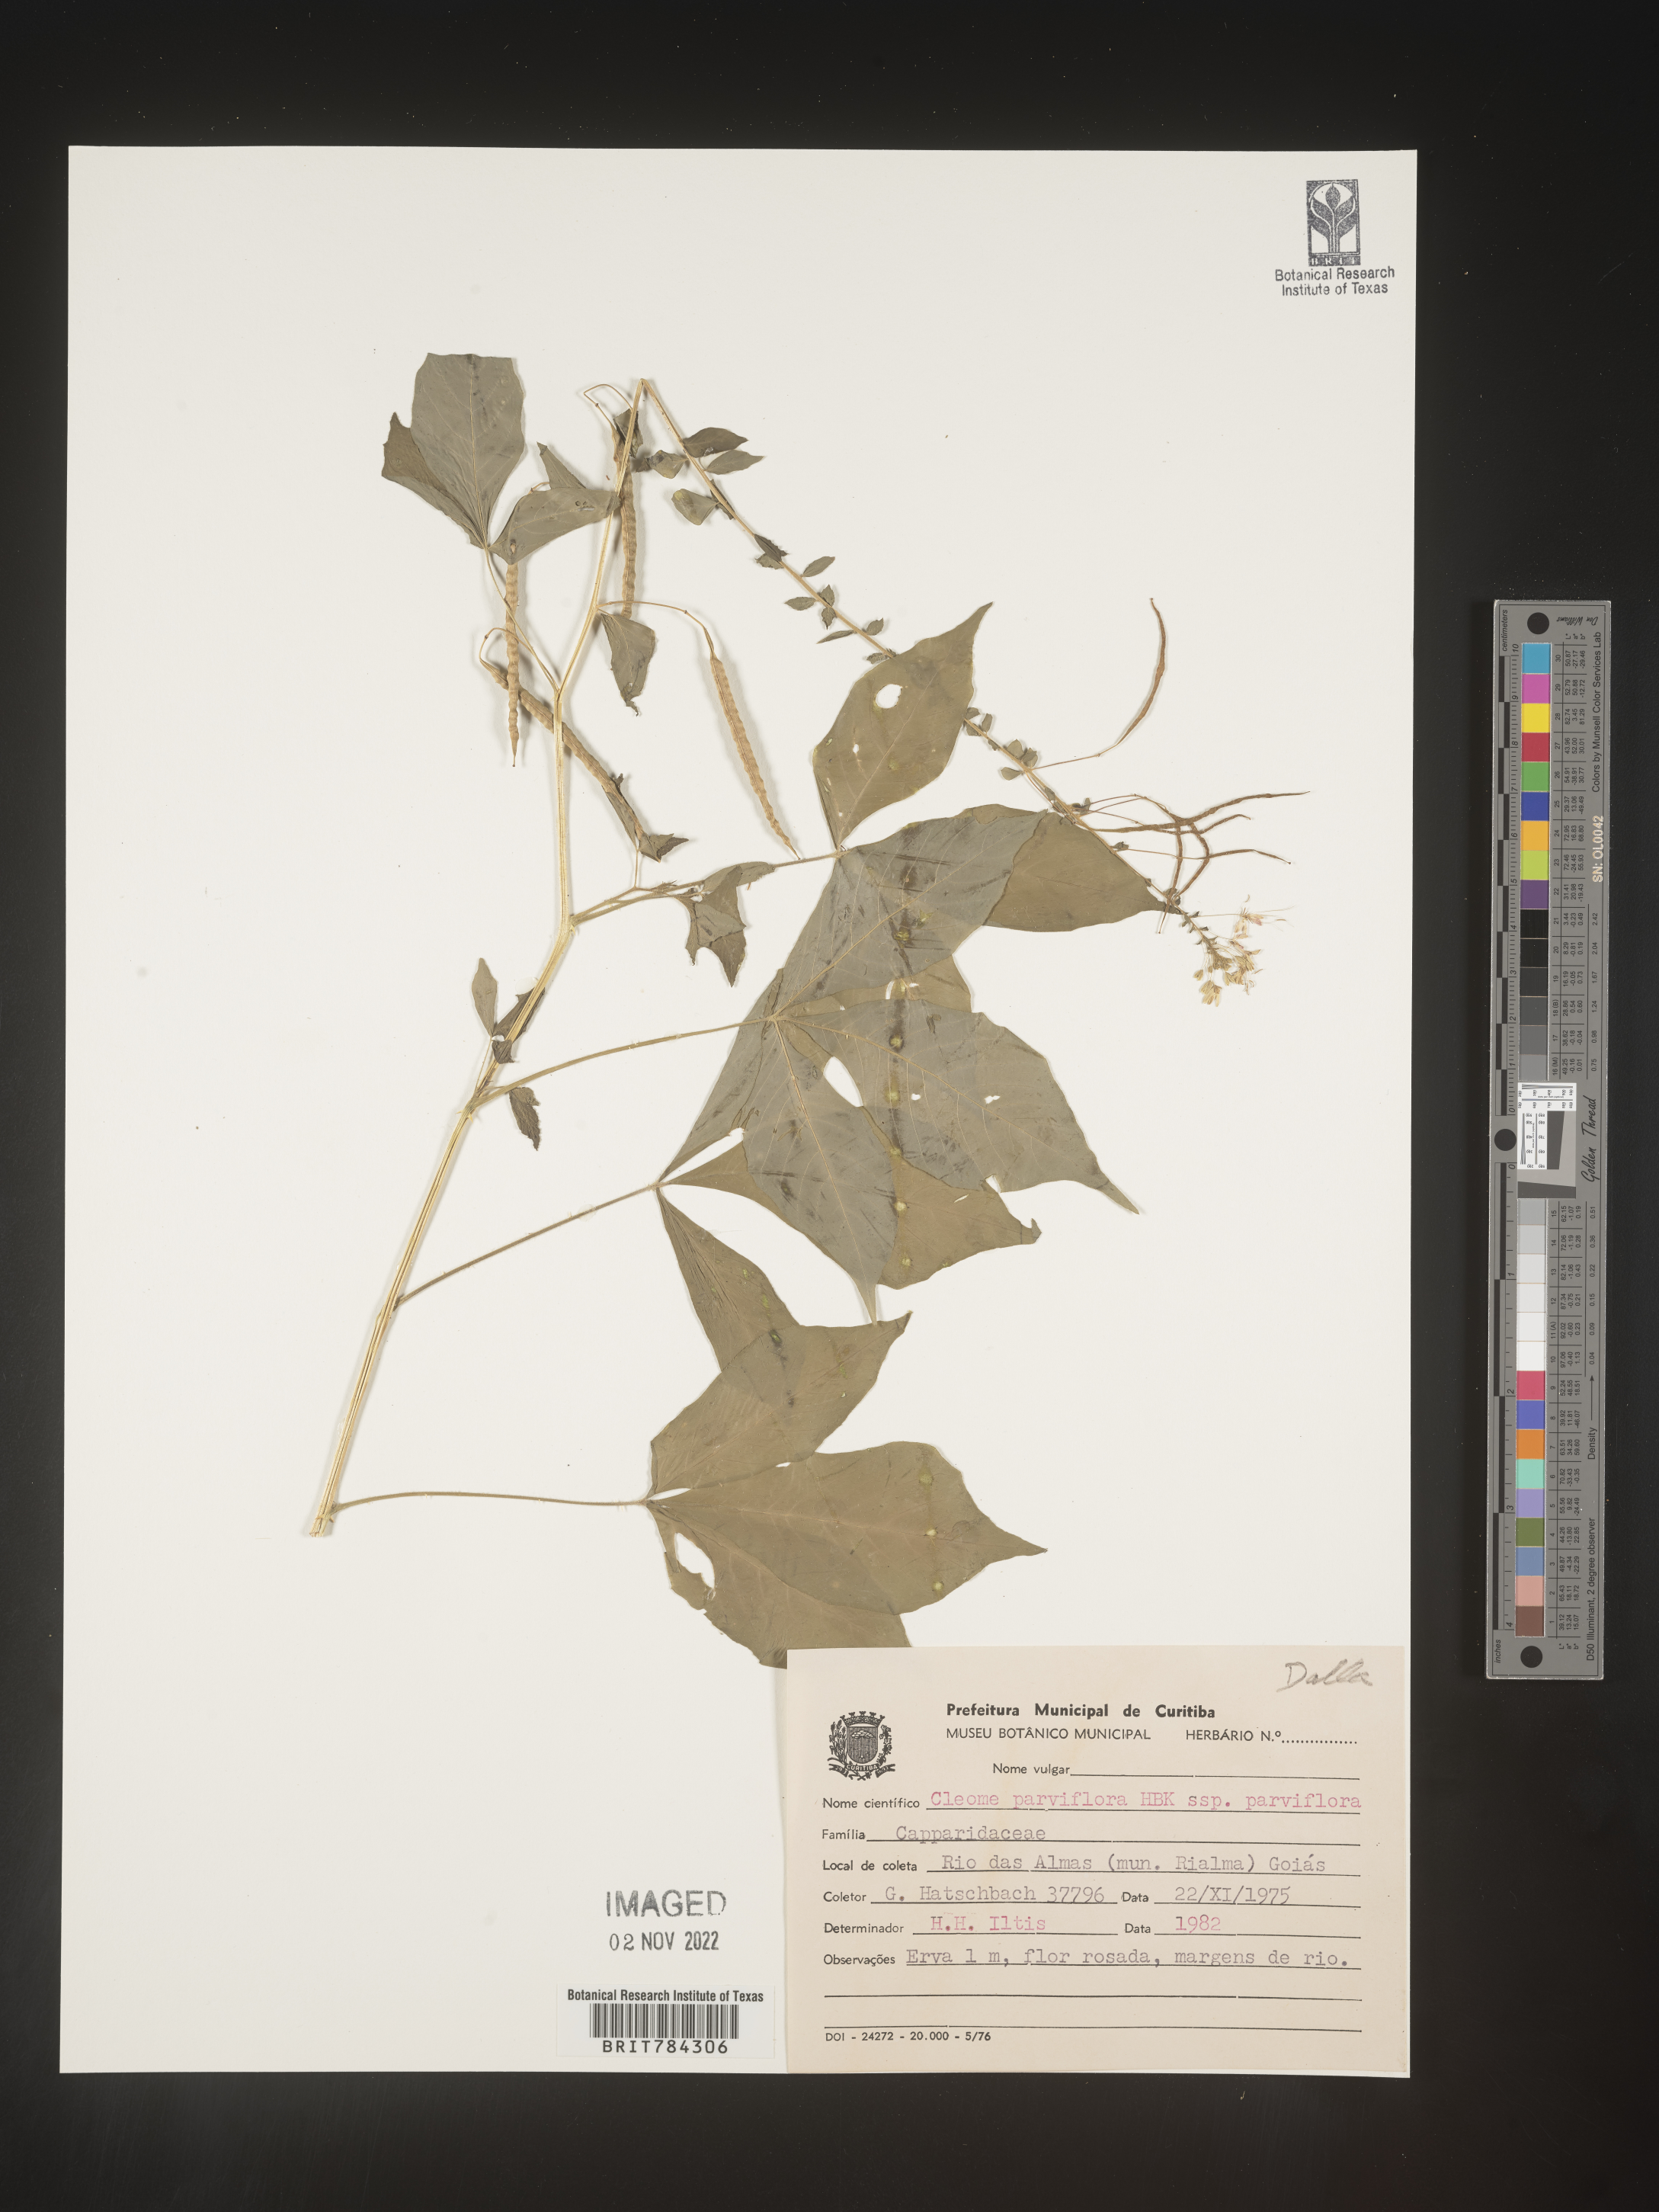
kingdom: Plantae
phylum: Tracheophyta
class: Magnoliopsida
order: Brassicales
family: Cleomaceae
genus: Cleome
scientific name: Cleome
